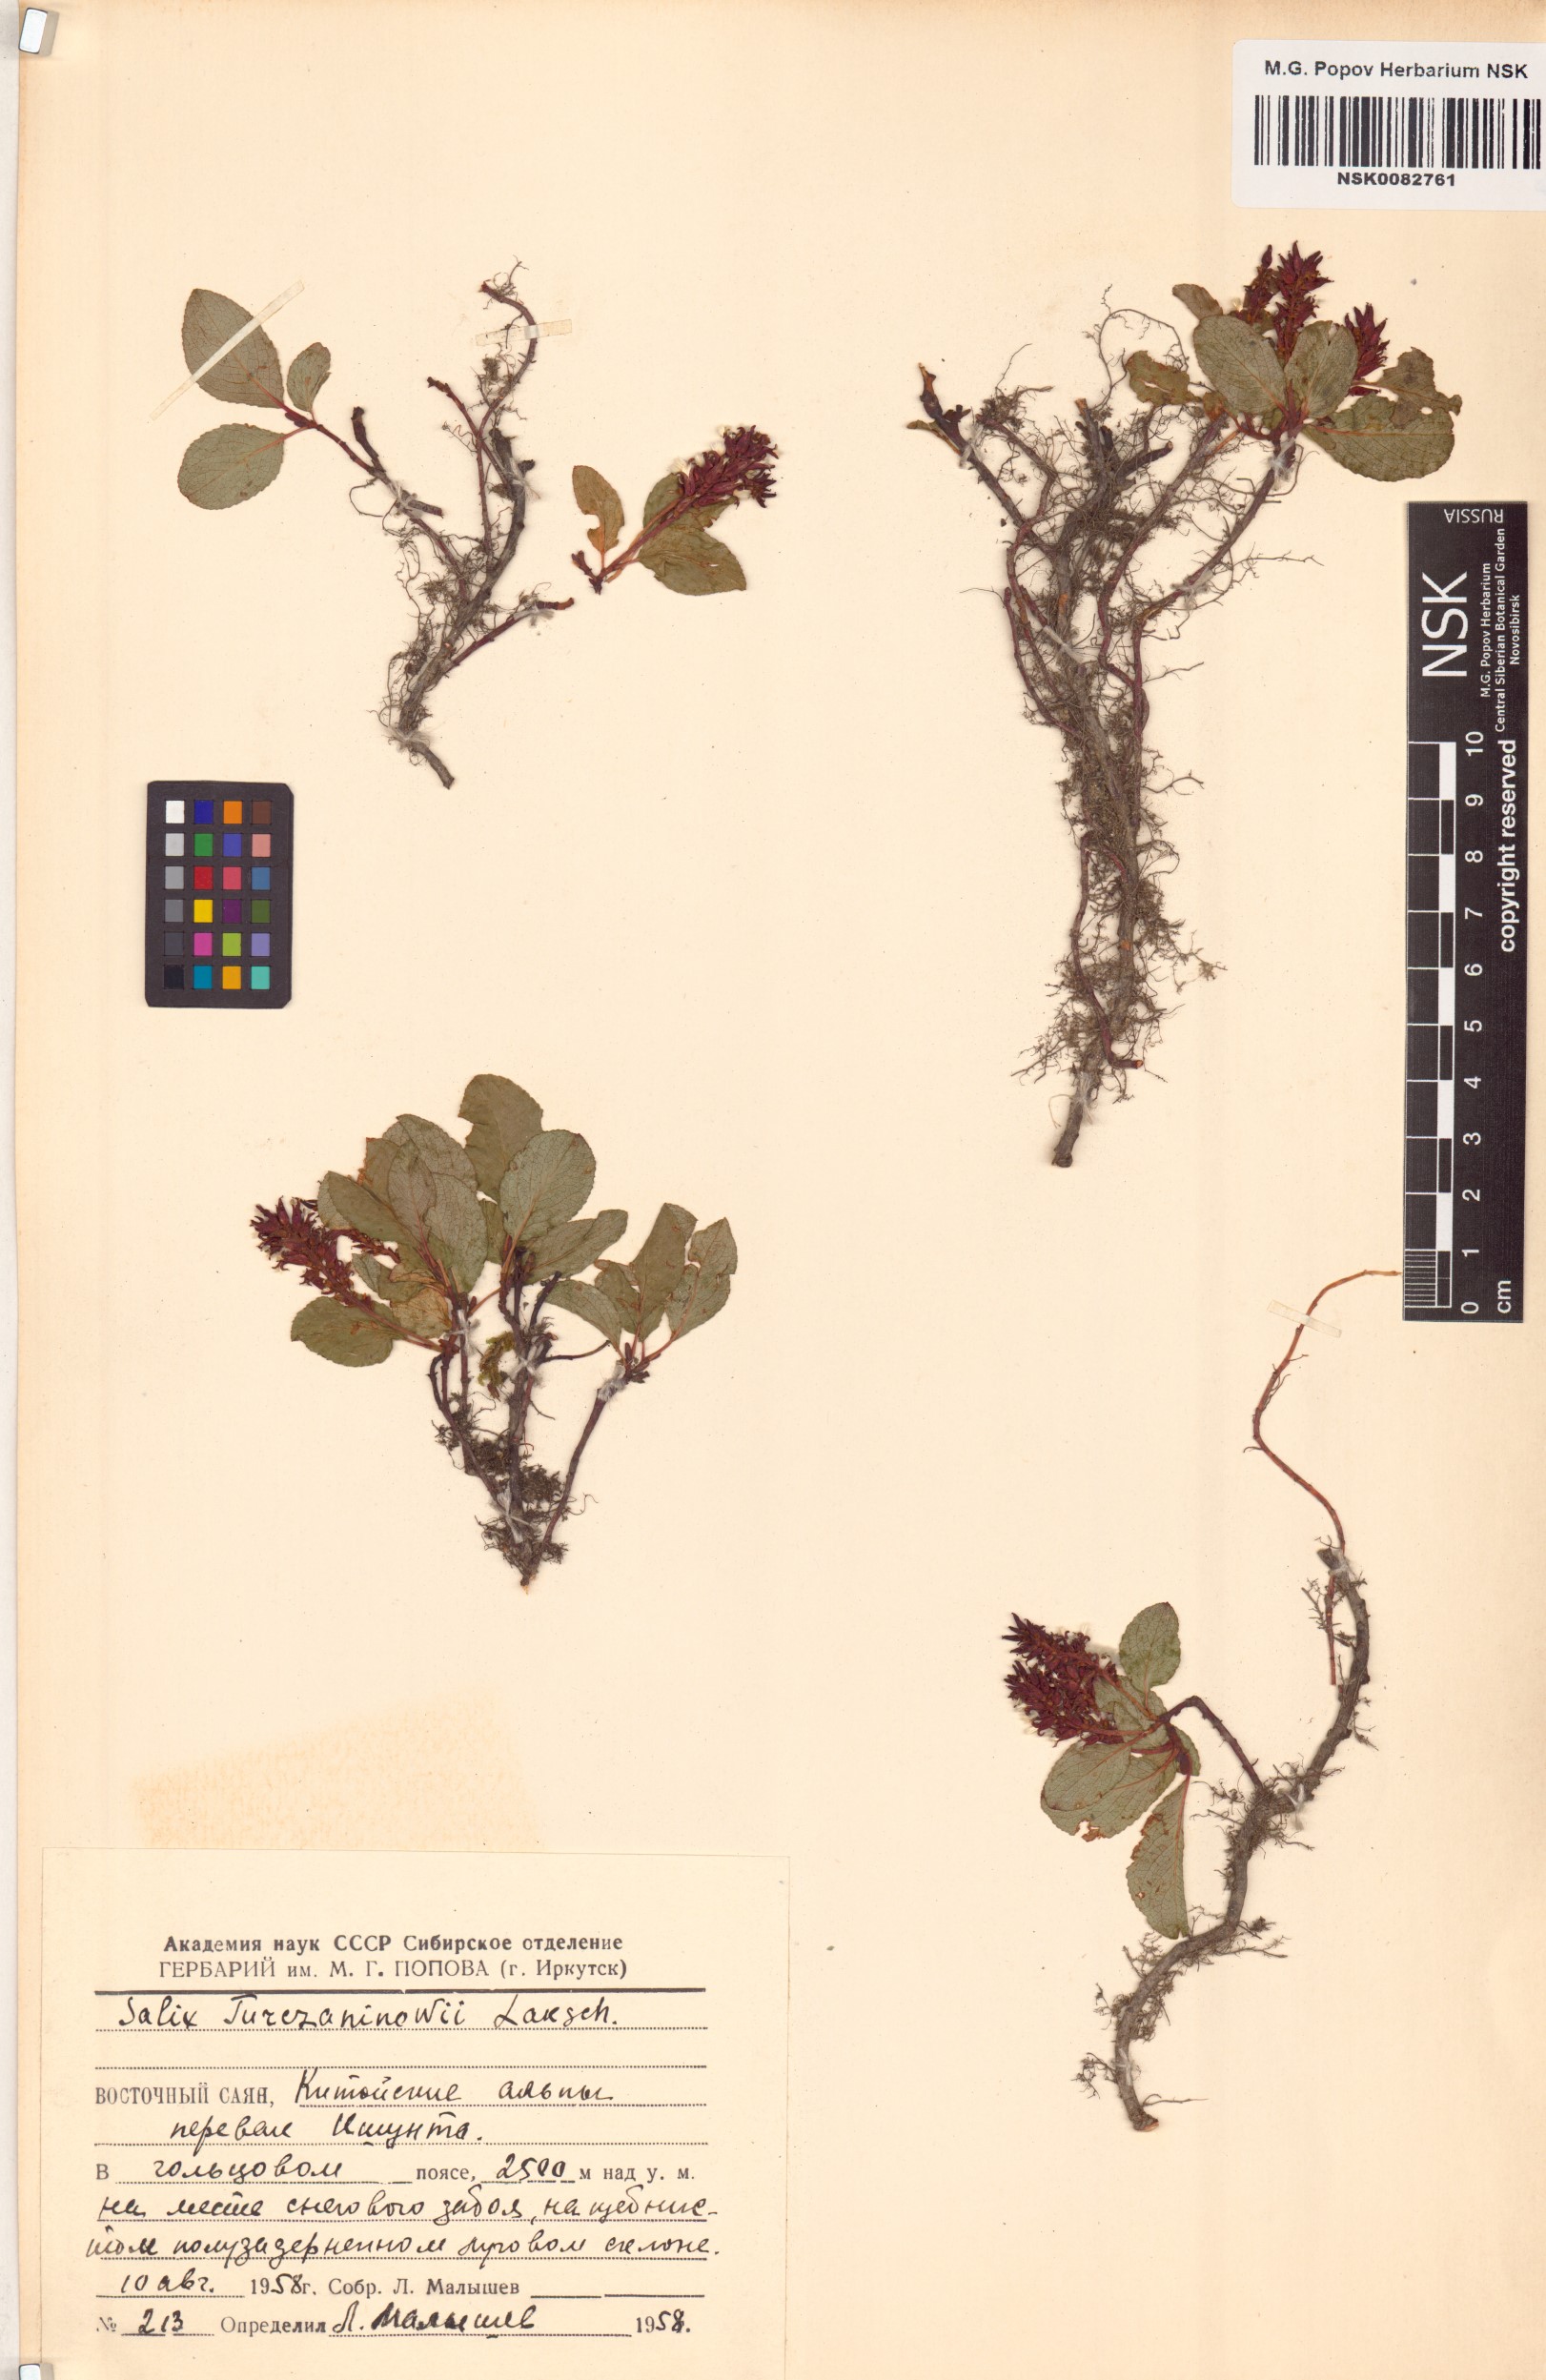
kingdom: Plantae
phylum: Tracheophyta
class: Magnoliopsida
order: Malpighiales
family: Salicaceae
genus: Salix
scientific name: Salix turczaninowii
